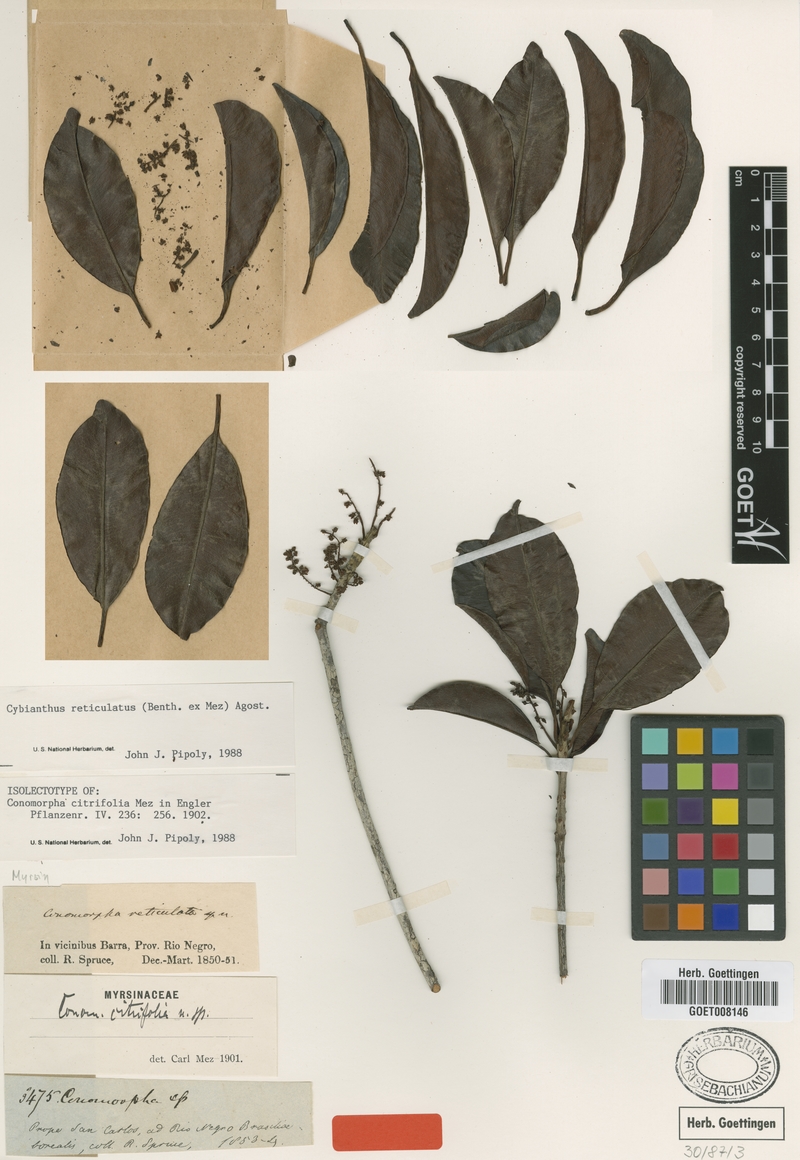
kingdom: Plantae
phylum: Tracheophyta
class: Magnoliopsida
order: Ericales
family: Primulaceae
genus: Cybianthus
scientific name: Cybianthus reticulatus
